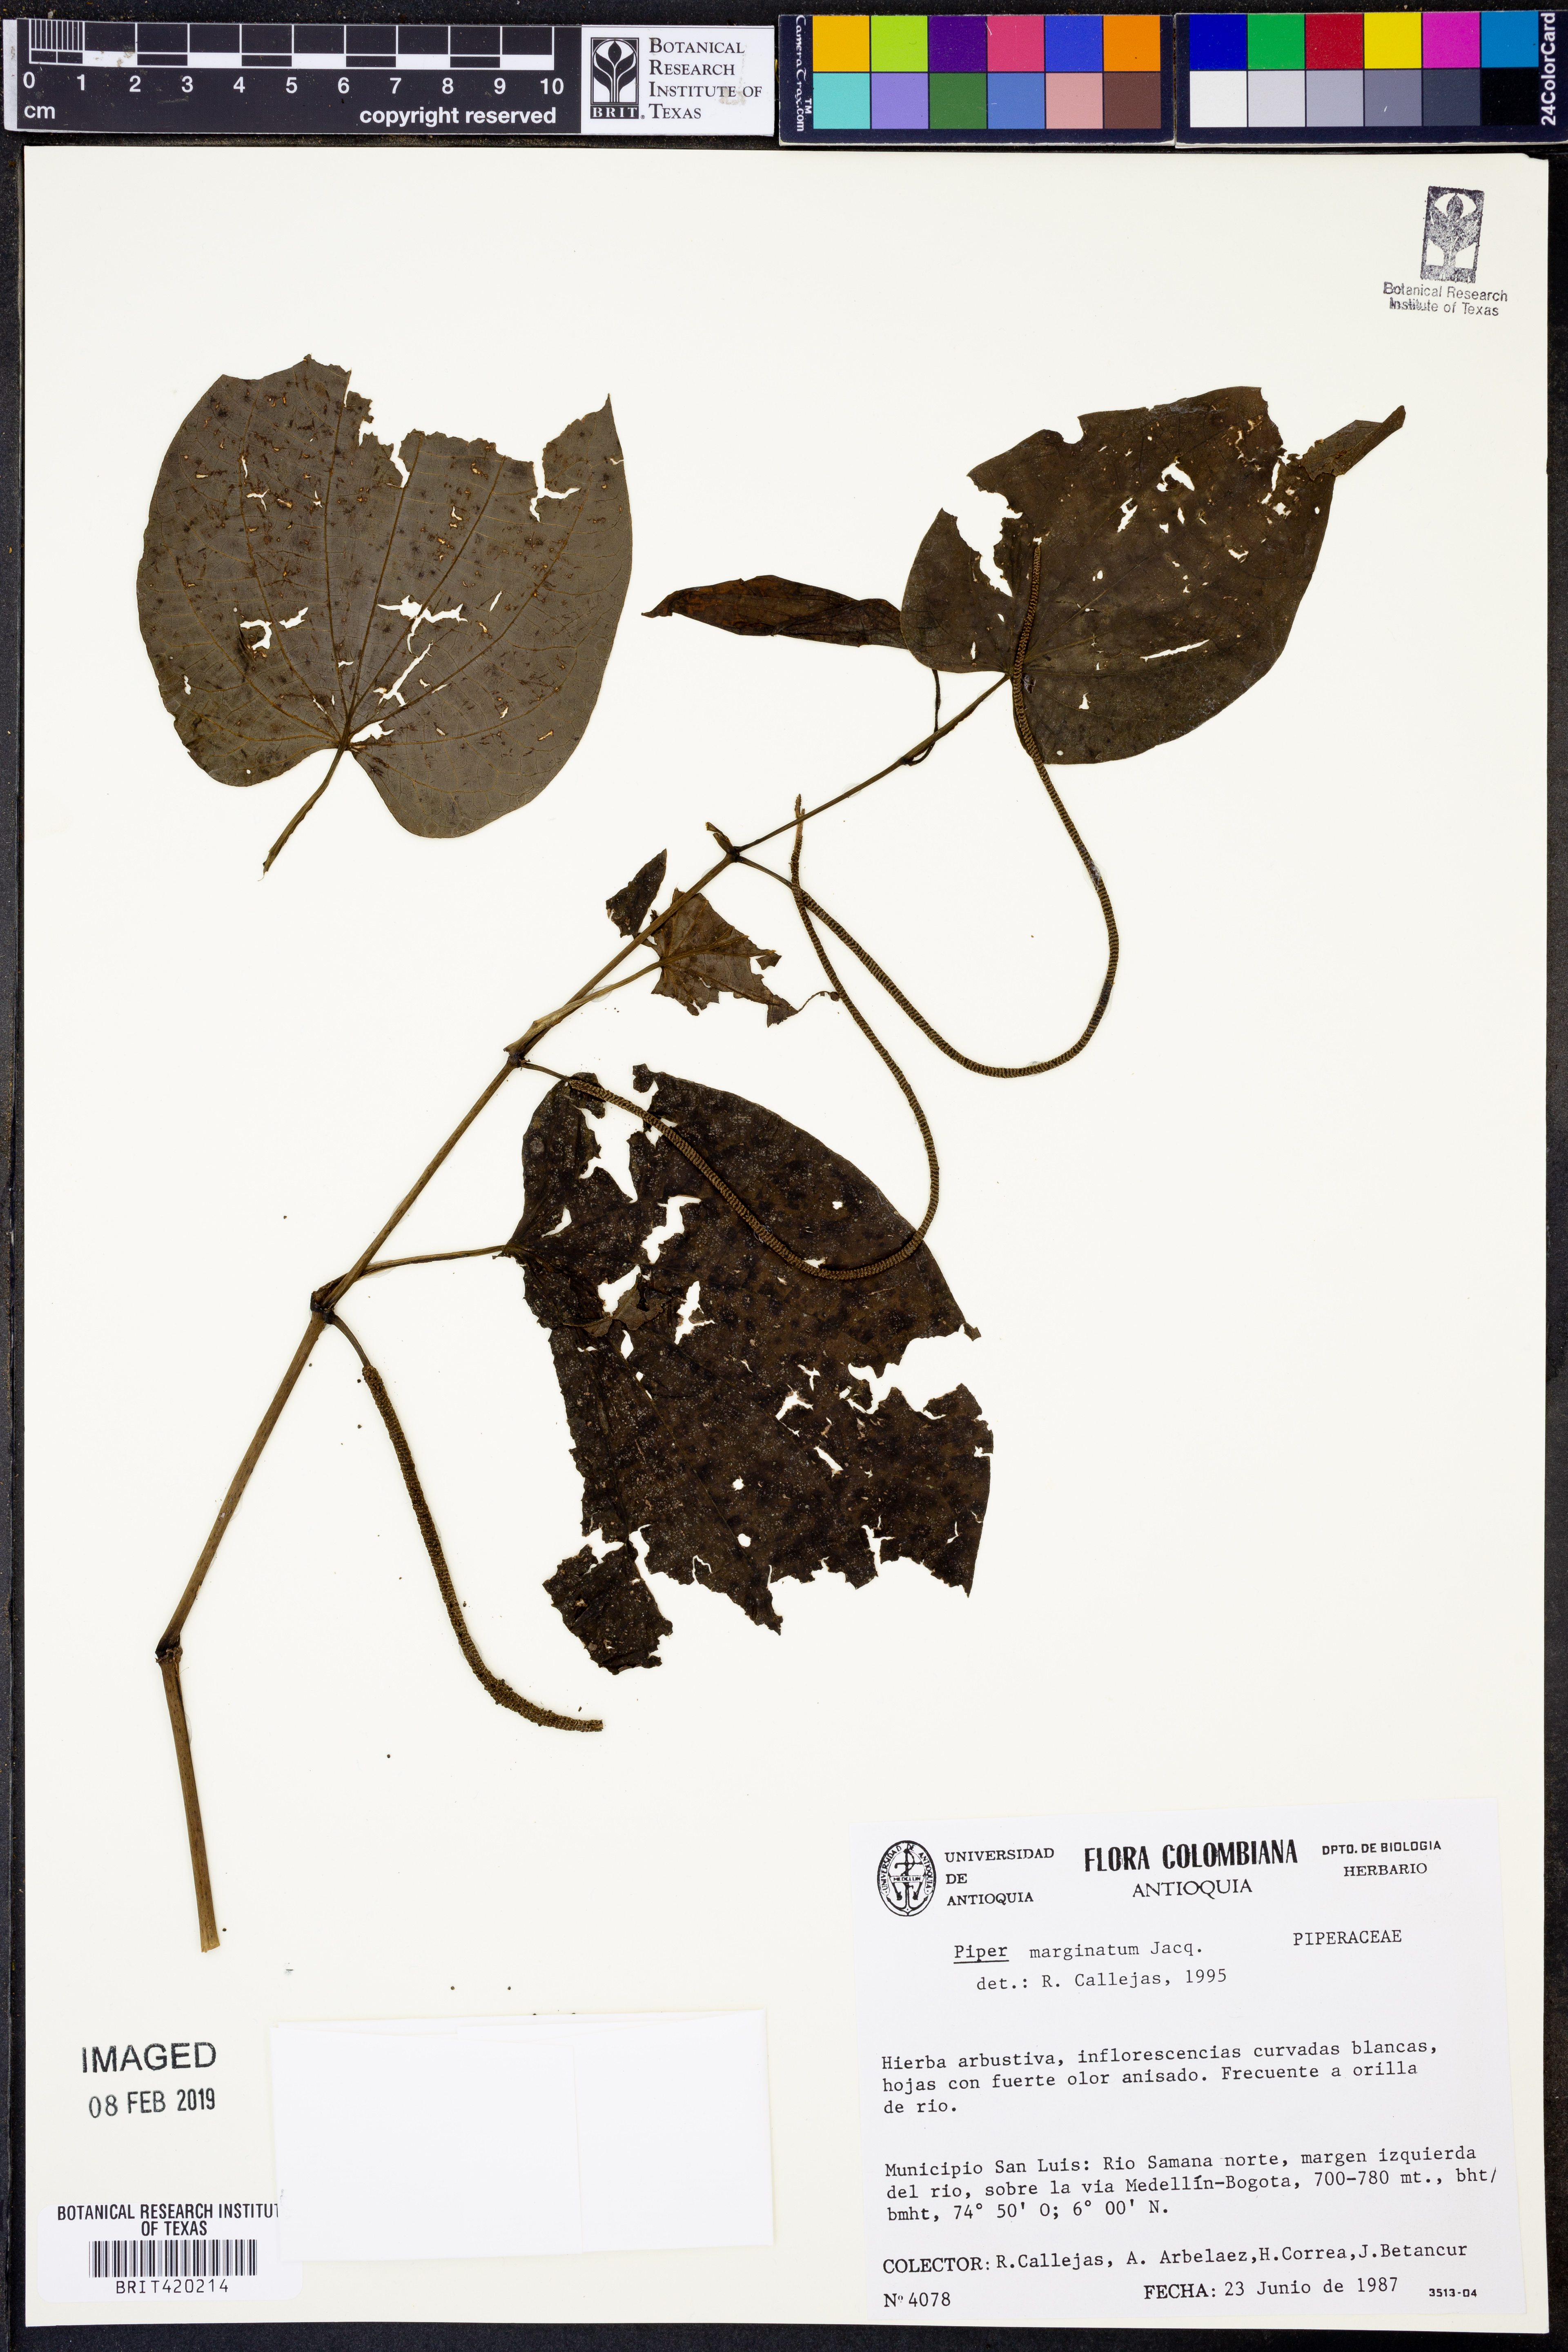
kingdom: Plantae
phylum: Tracheophyta
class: Magnoliopsida
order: Piperales
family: Piperaceae
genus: Piper
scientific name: Piper marginatum
